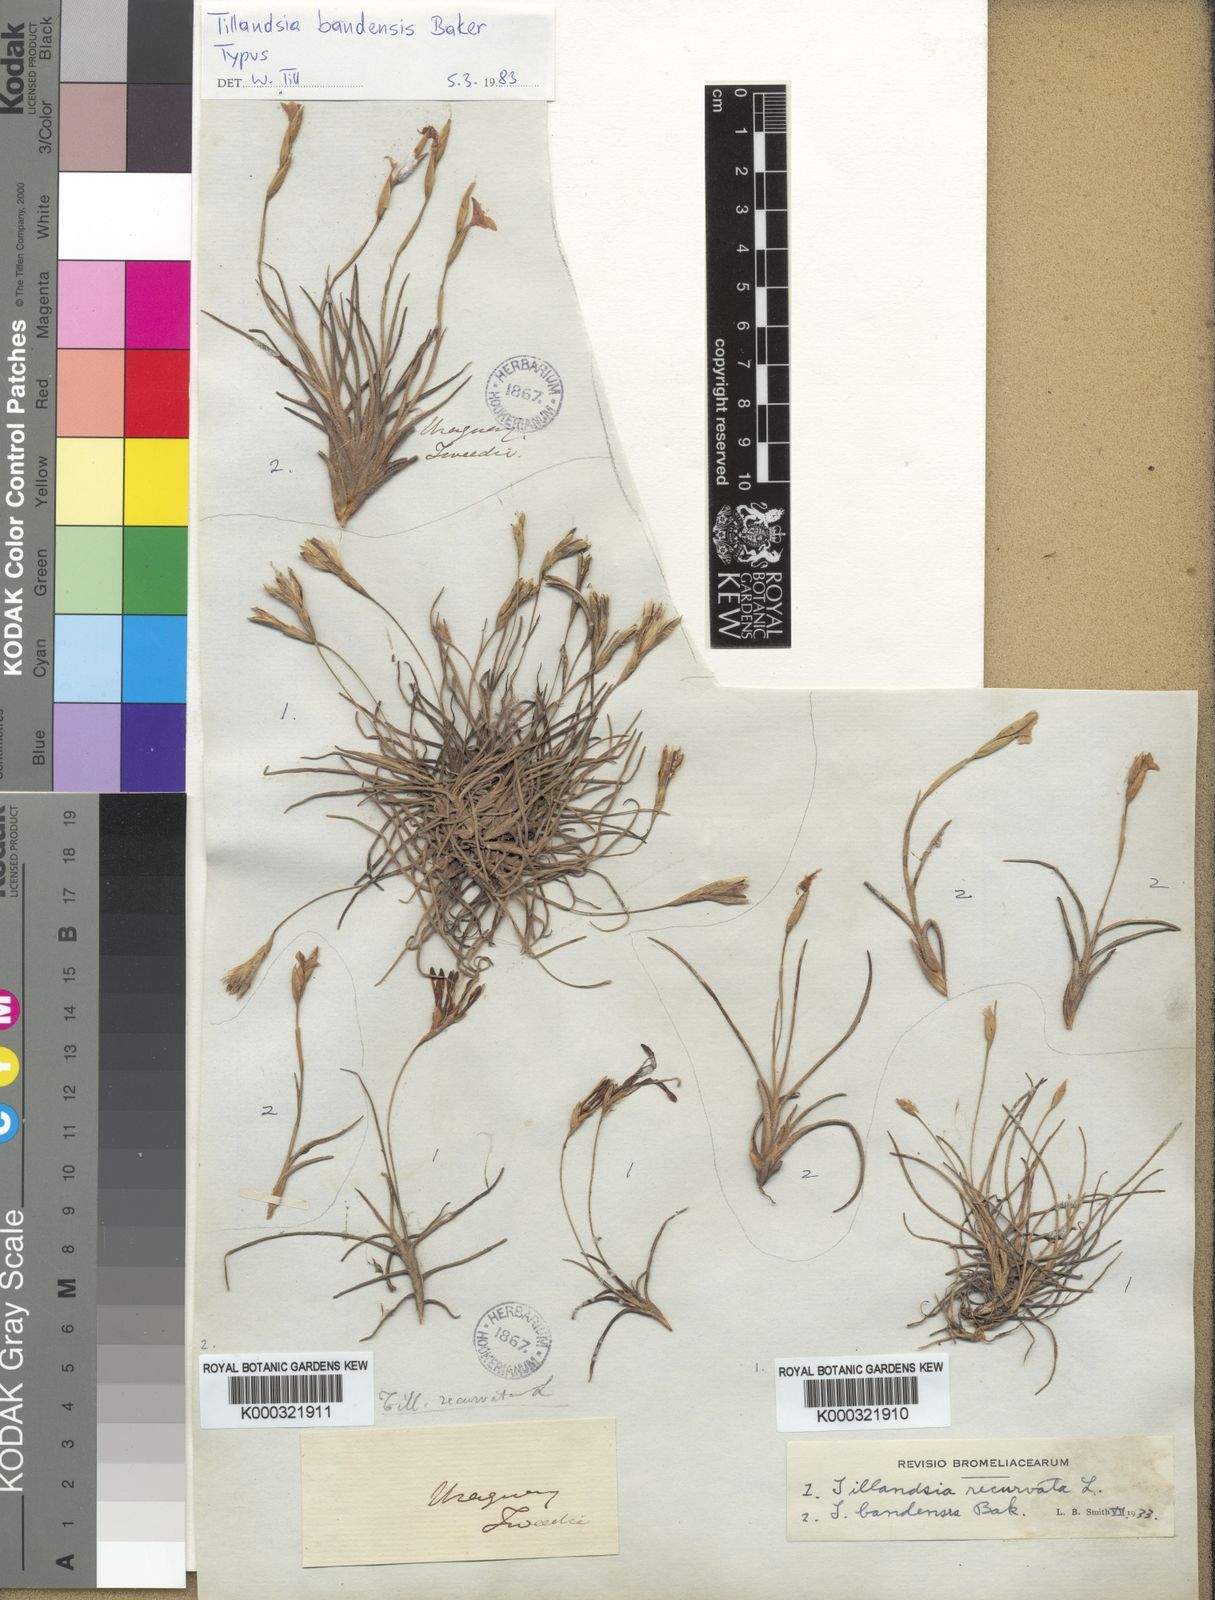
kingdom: Plantae
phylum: Tracheophyta
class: Liliopsida
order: Poales
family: Bromeliaceae
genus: Tillandsia
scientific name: Tillandsia recurvata
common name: Small ballmoss
